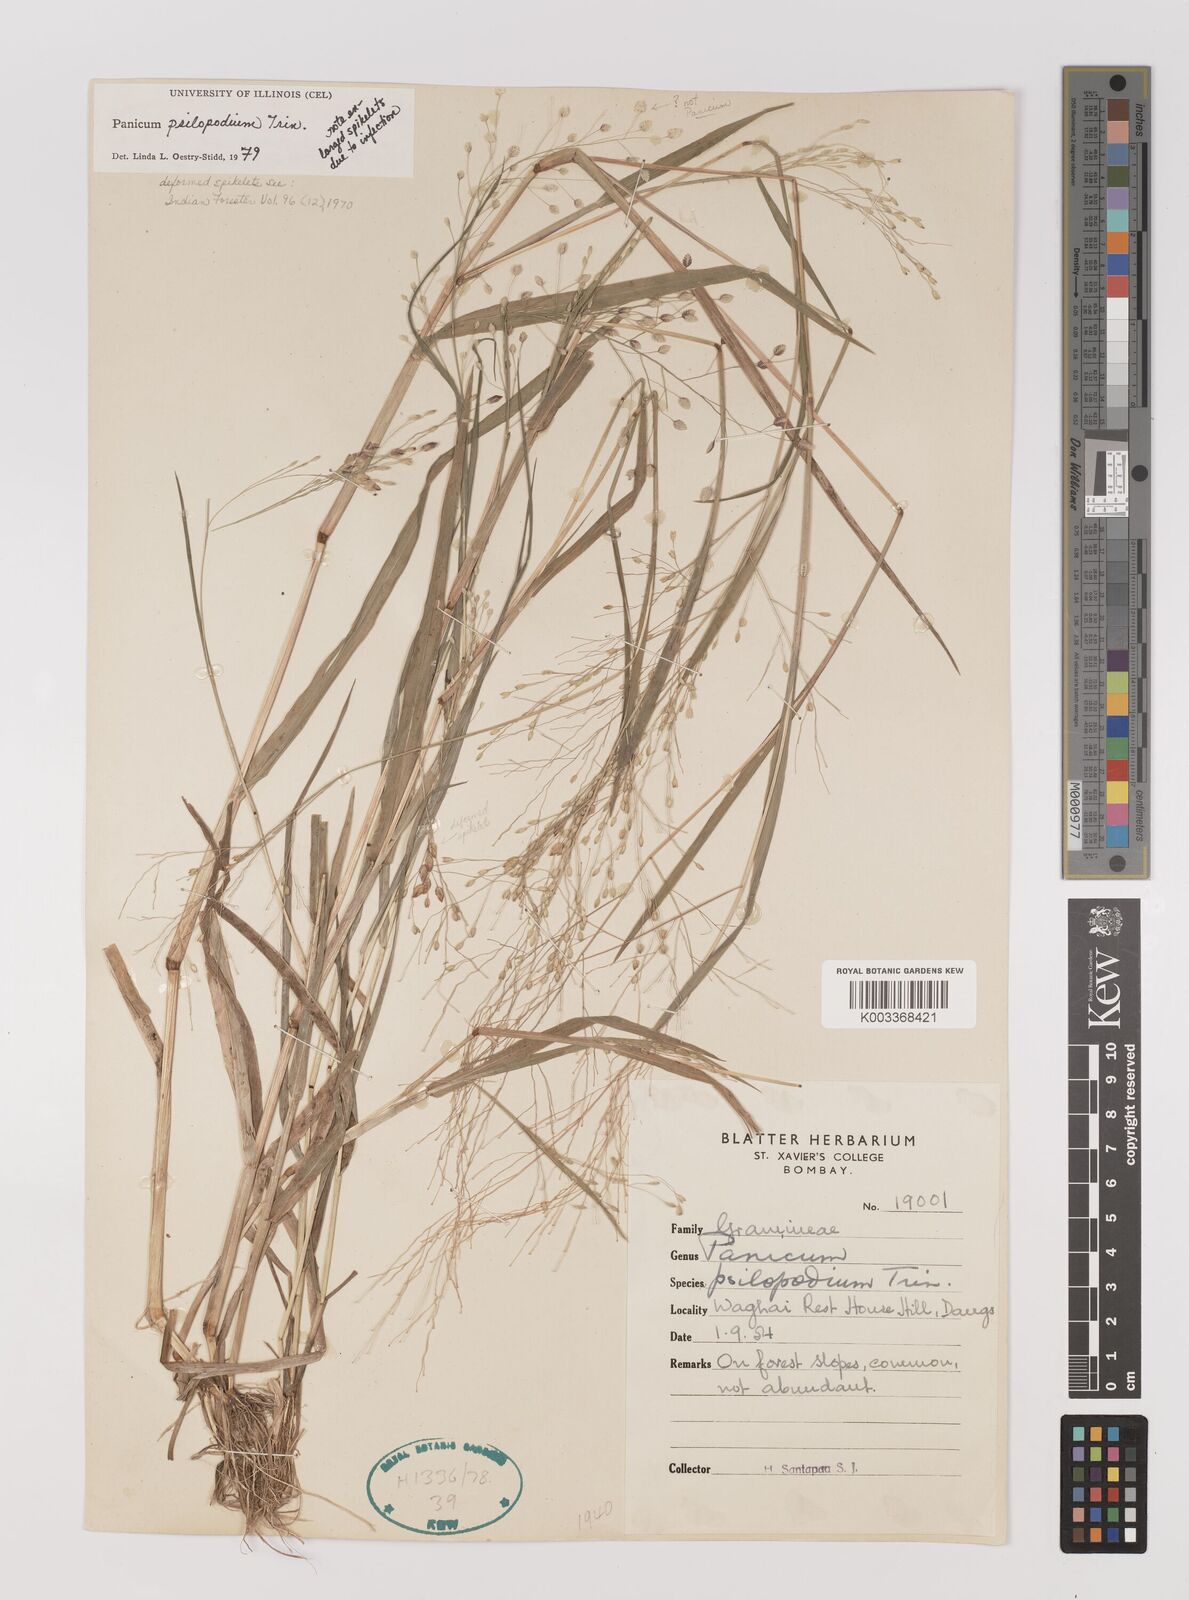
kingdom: Plantae
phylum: Tracheophyta
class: Liliopsida
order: Poales
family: Poaceae
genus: Panicum
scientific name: Panicum sumatrense
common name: Little millet
